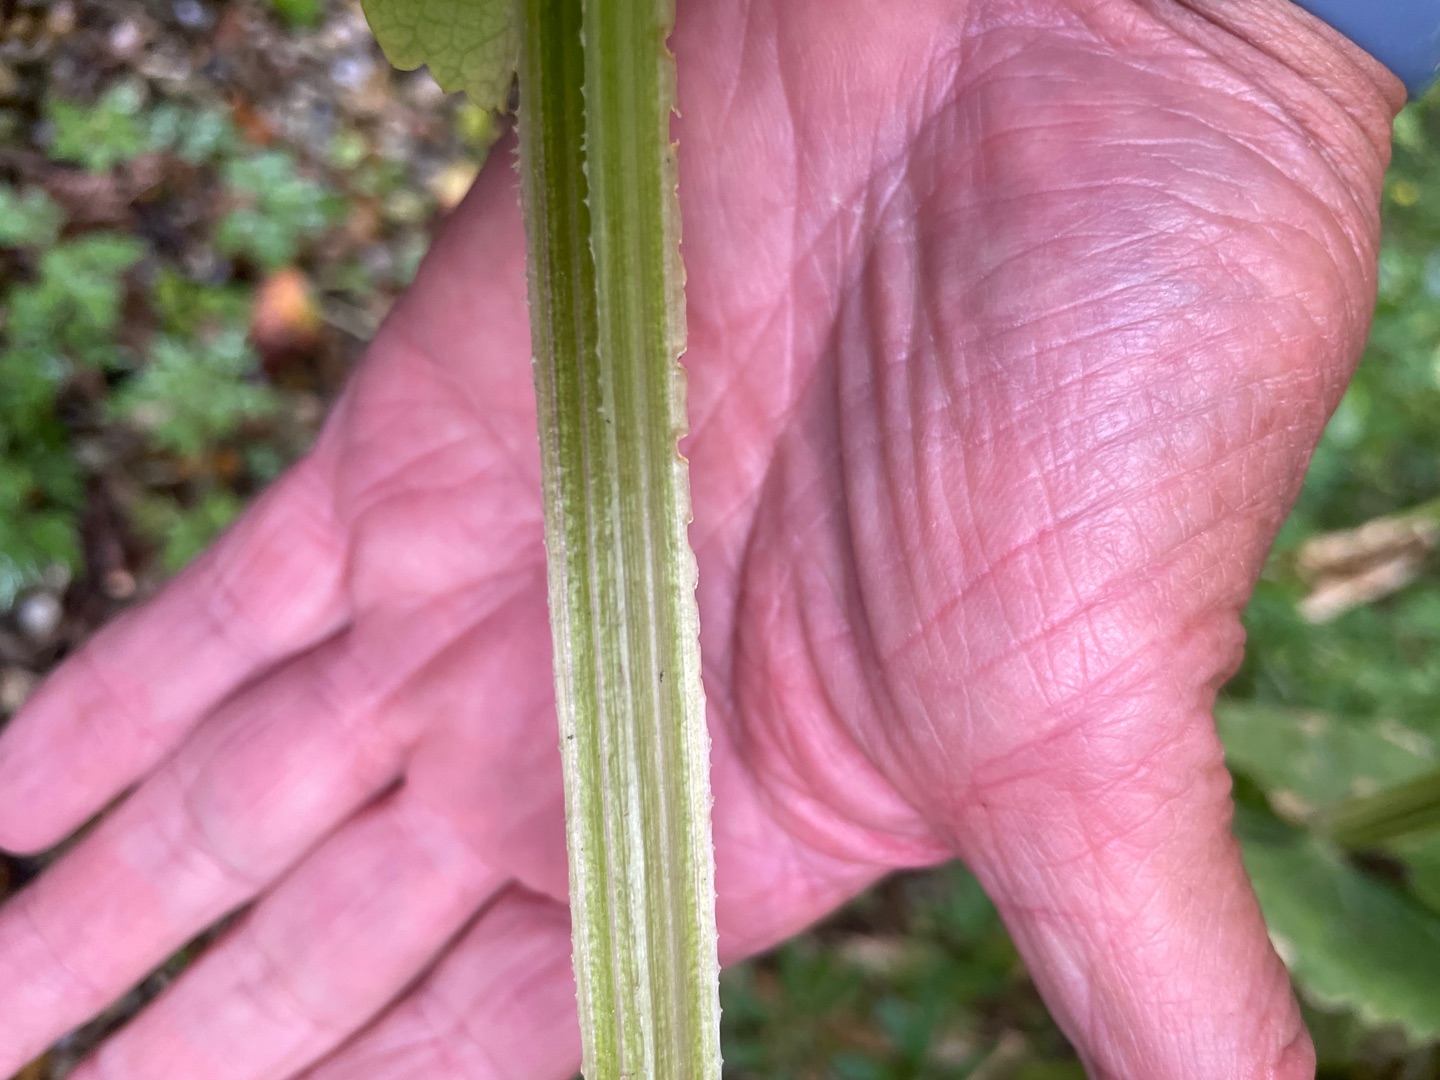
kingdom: Plantae
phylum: Tracheophyta
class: Magnoliopsida
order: Apiales
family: Apiaceae
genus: Smyrnium
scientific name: Smyrnium perfoliatum
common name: Lundgylden
